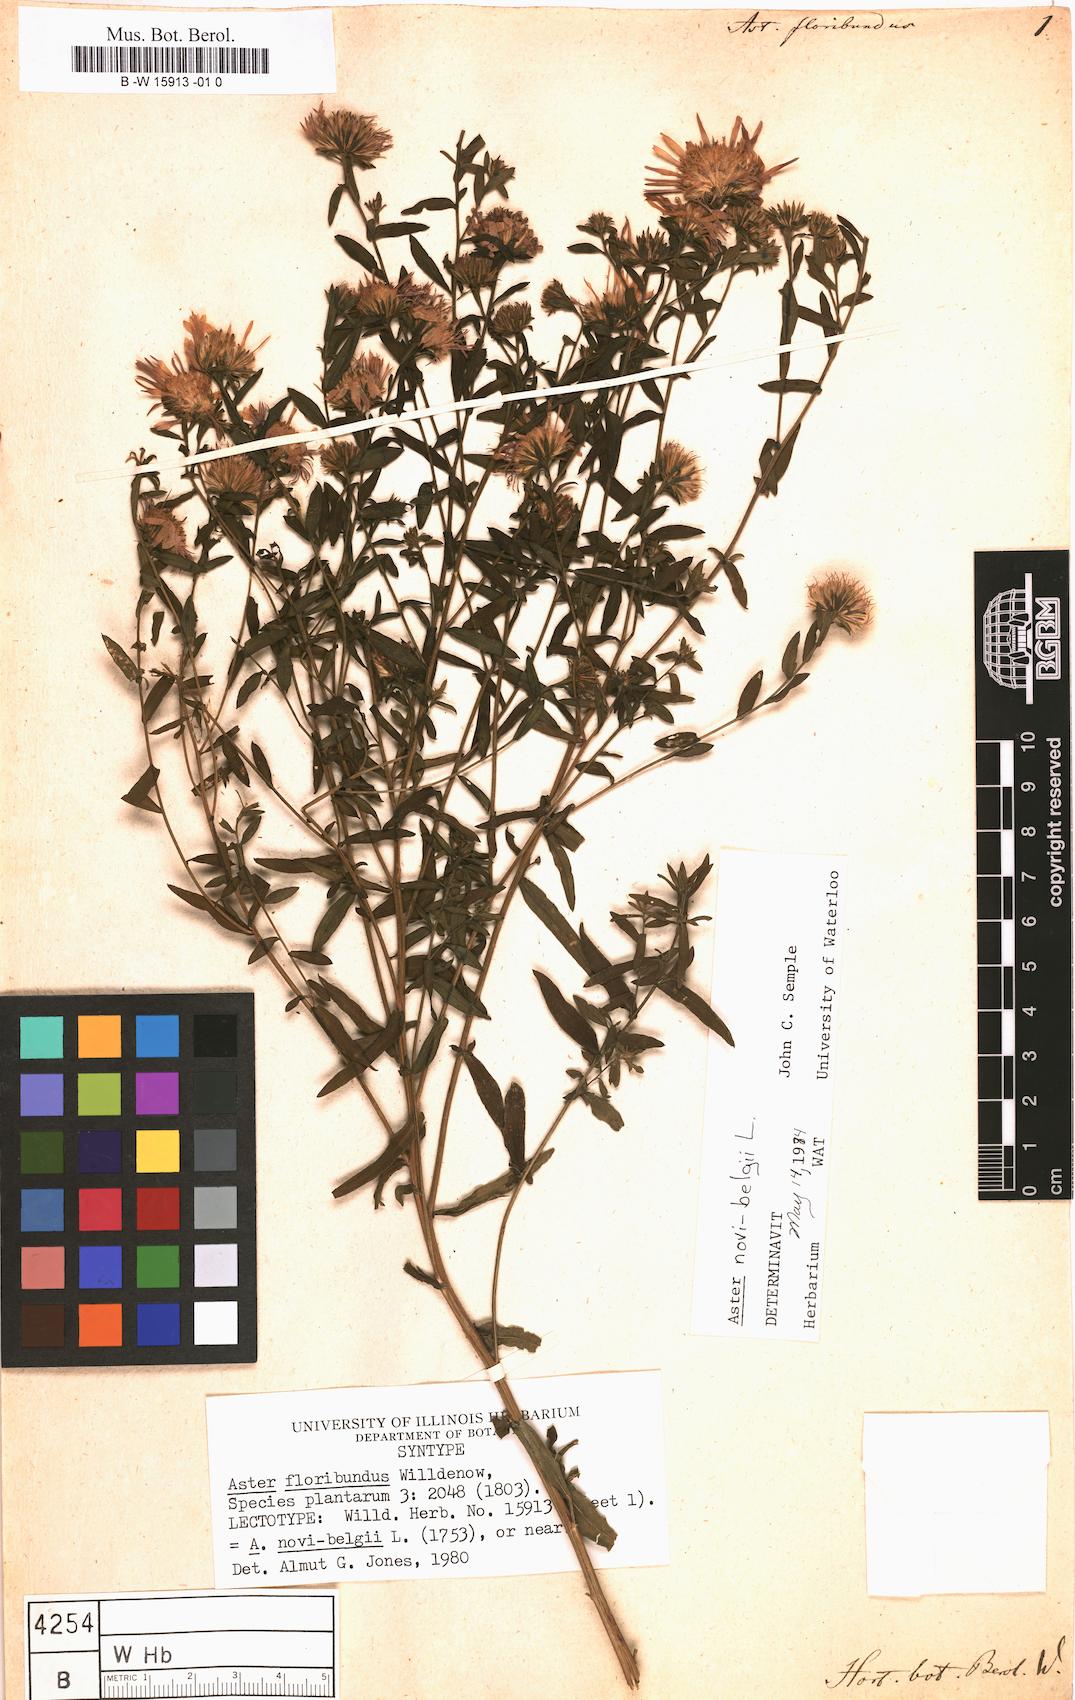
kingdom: Plantae
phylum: Tracheophyta
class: Magnoliopsida
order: Asterales
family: Asteraceae
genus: Aster
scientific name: Aster floribundus
